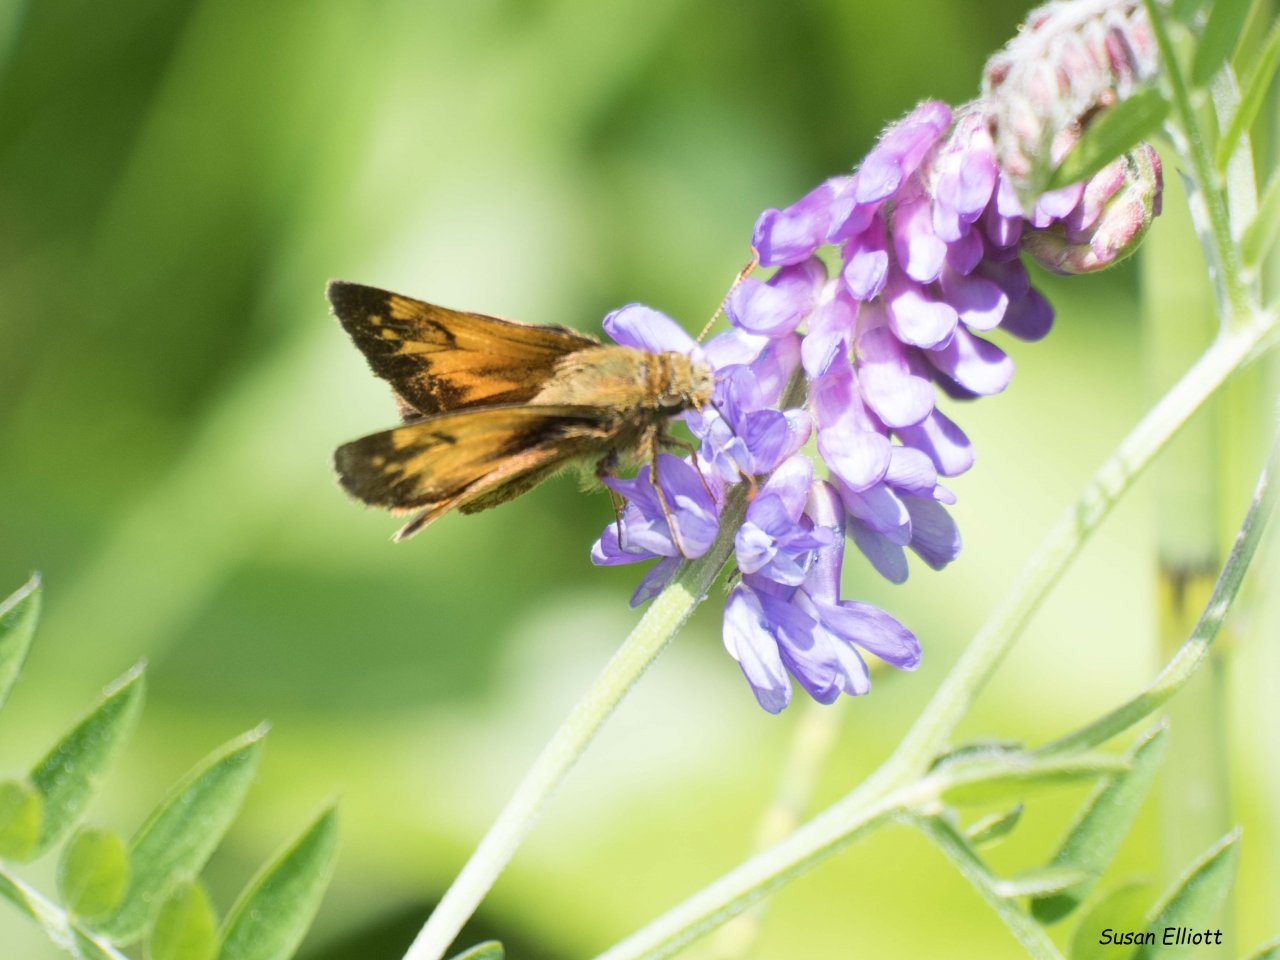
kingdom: Animalia
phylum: Arthropoda
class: Insecta
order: Lepidoptera
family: Hesperiidae
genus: Lon
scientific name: Lon hobomok
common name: Hobomok Skipper
